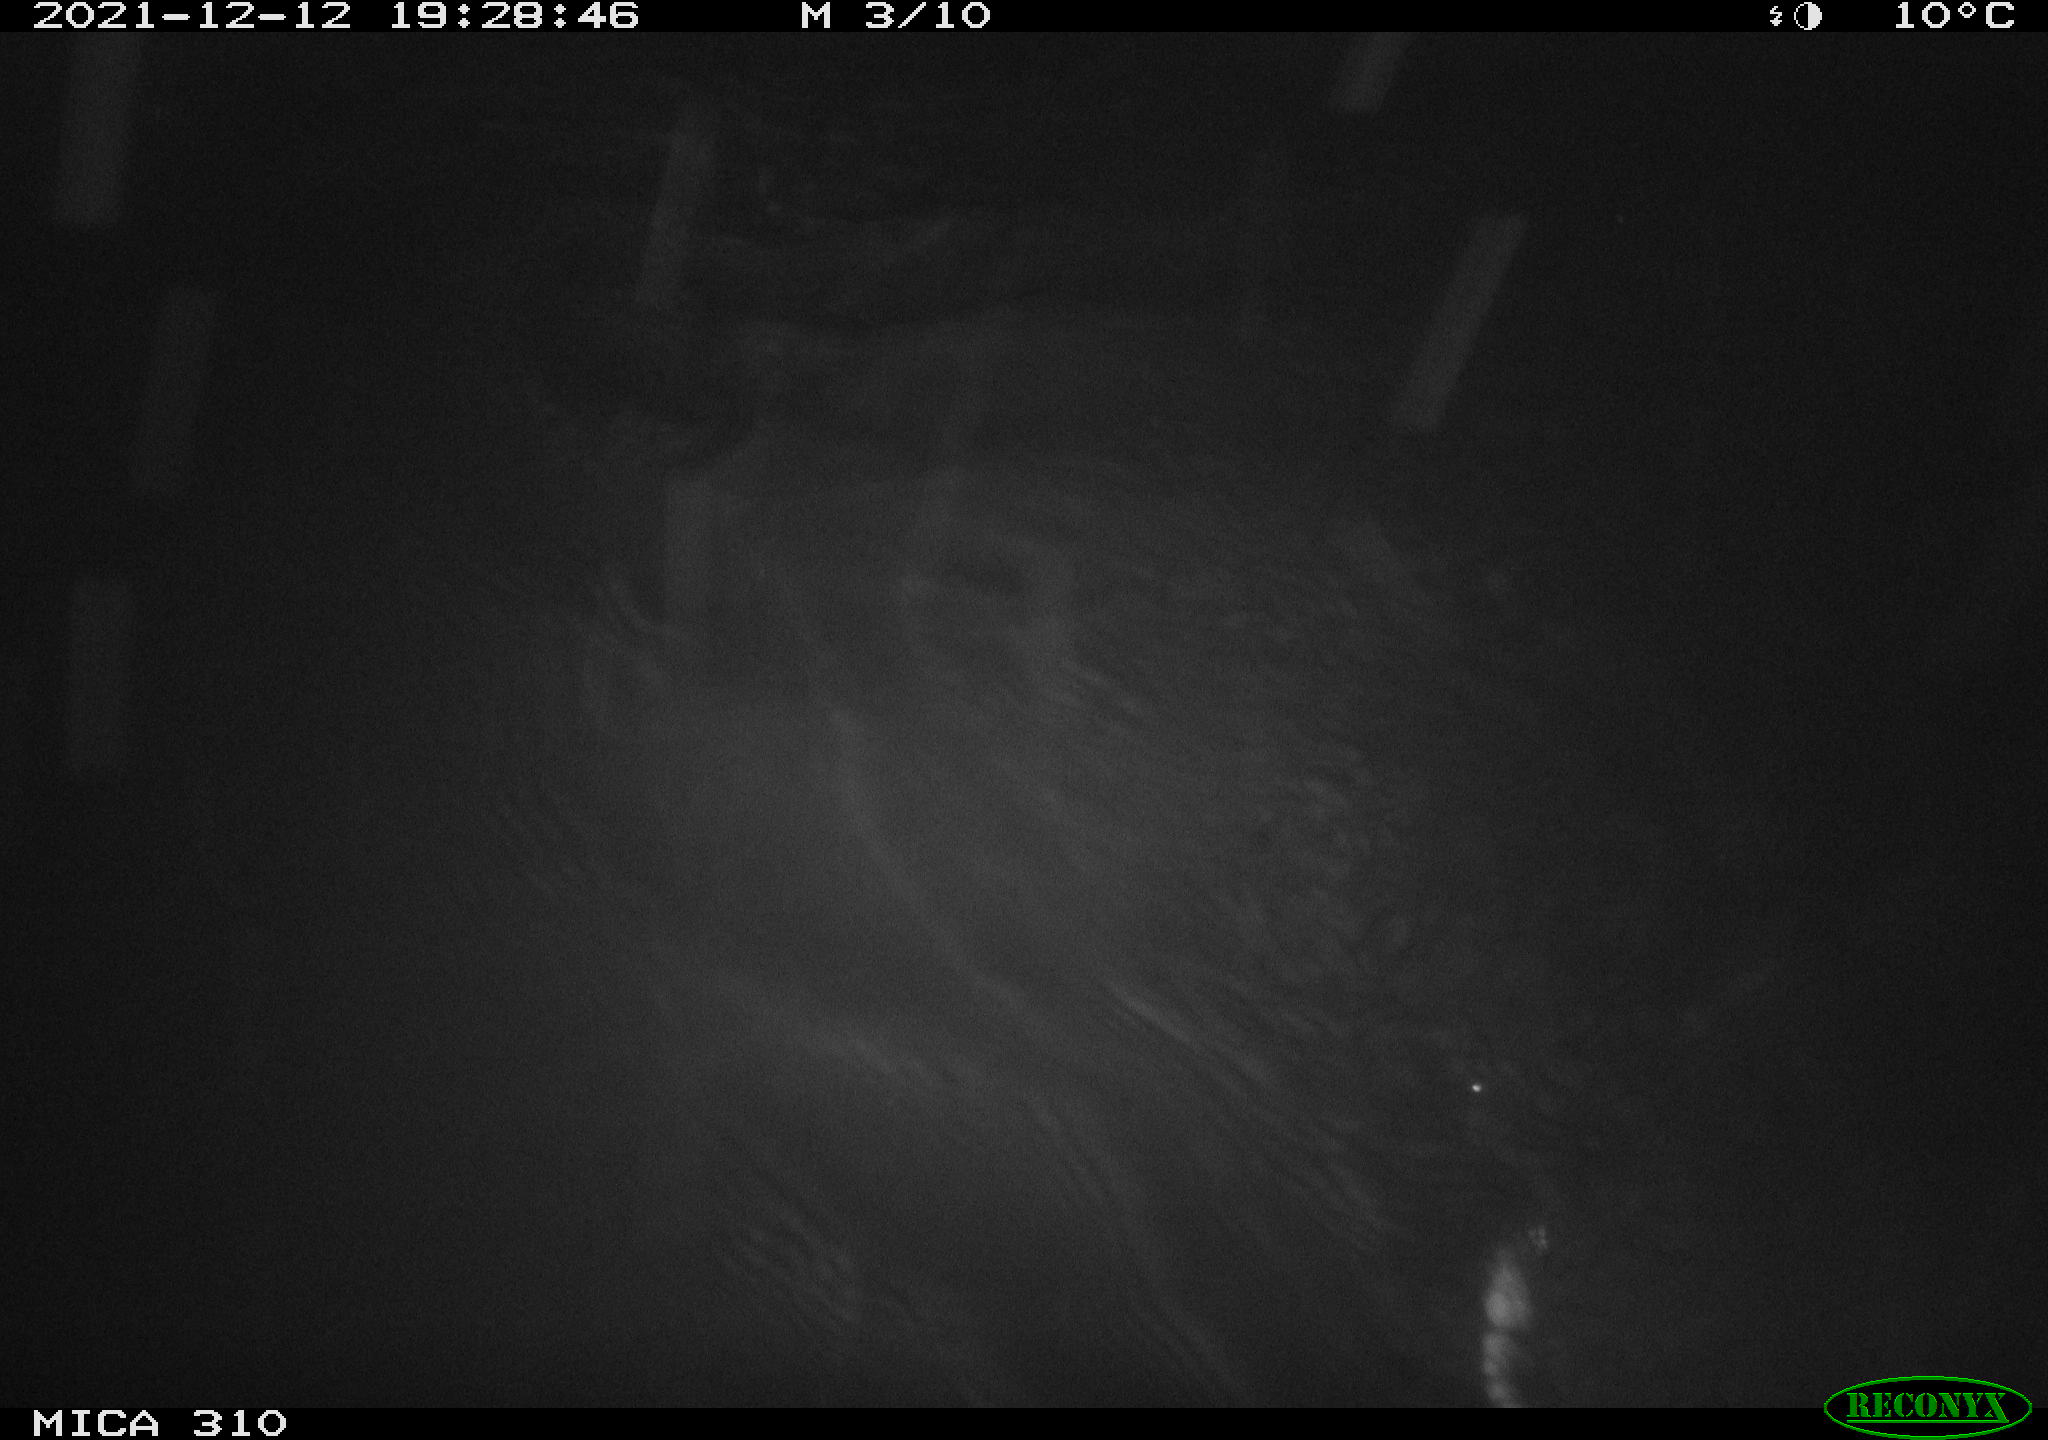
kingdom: Animalia
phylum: Chordata
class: Mammalia
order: Rodentia
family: Cricetidae
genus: Ondatra
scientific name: Ondatra zibethicus
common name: Muskrat
